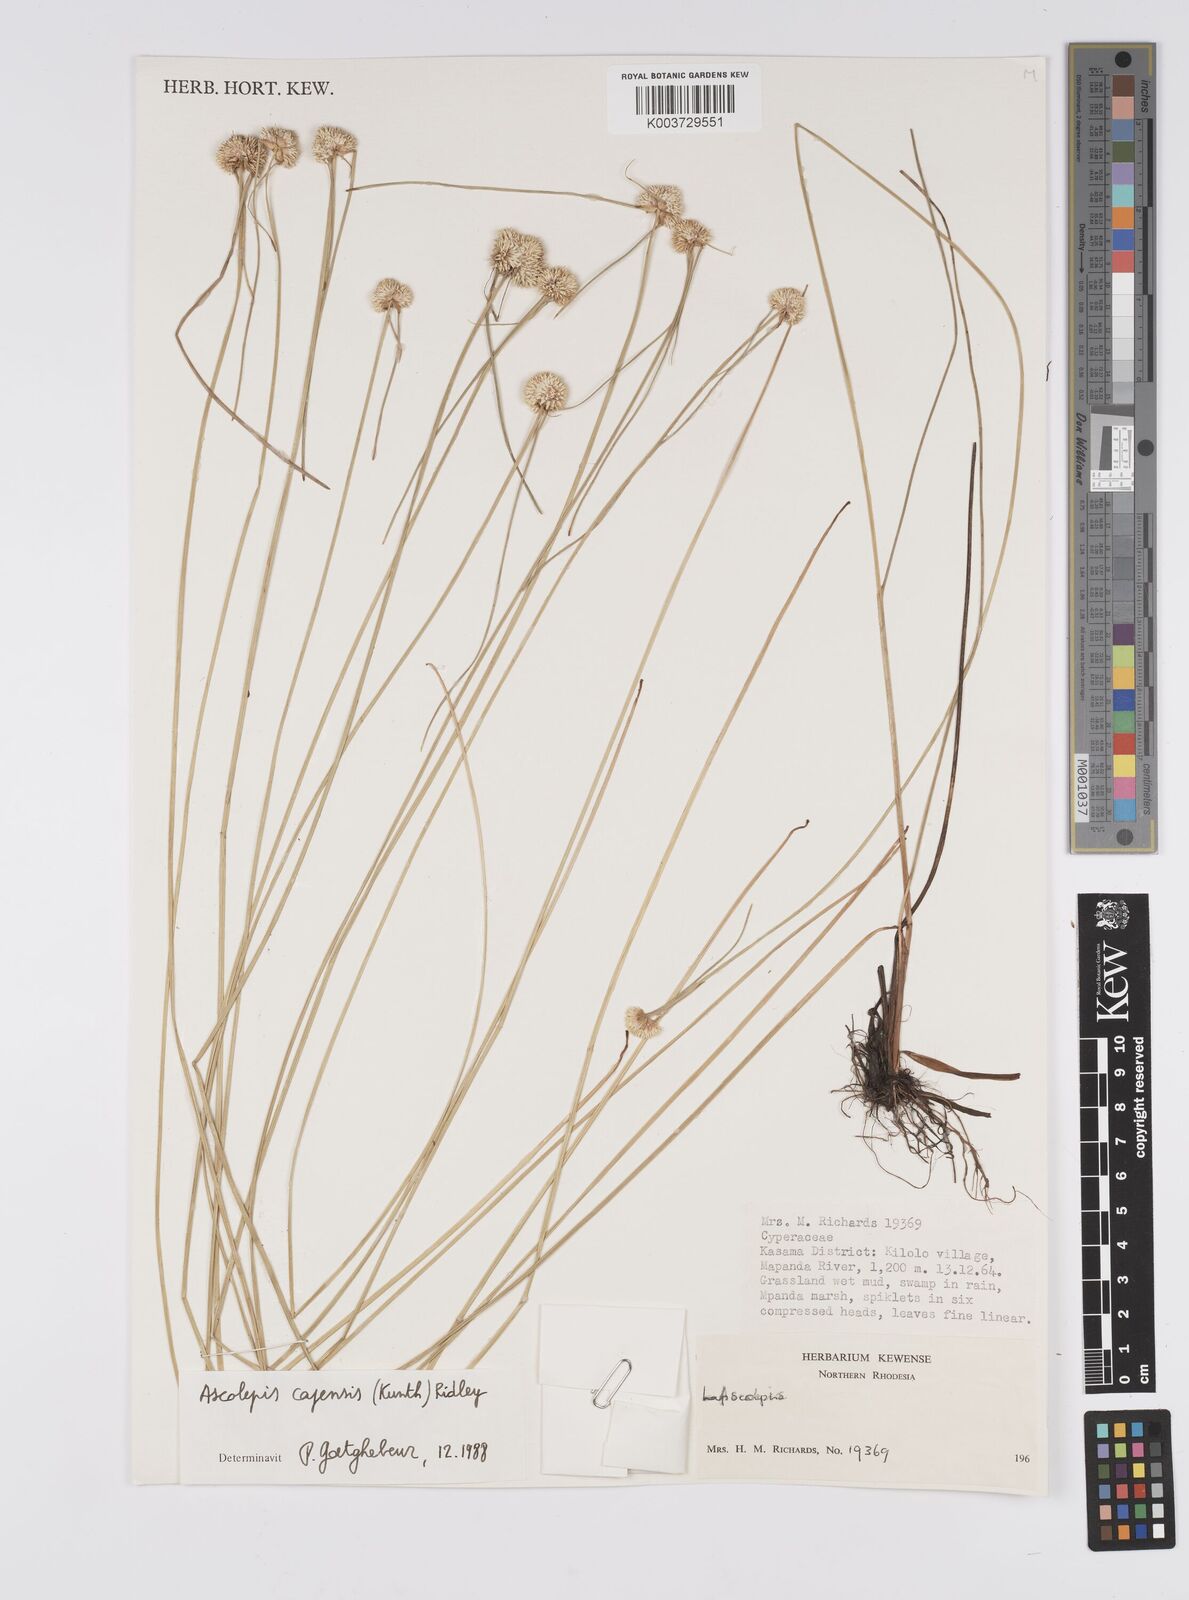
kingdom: Plantae
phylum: Tracheophyta
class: Liliopsida
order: Poales
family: Cyperaceae
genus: Cyperus
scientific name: Cyperus
